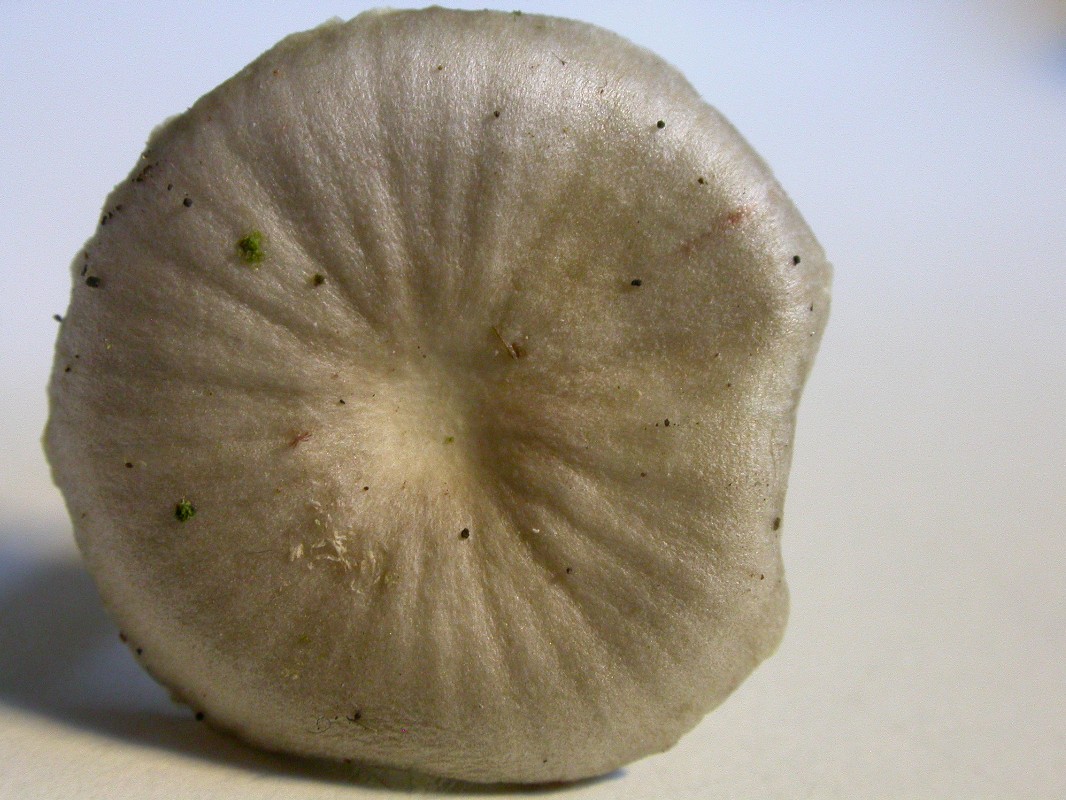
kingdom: Fungi
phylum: Basidiomycota
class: Agaricomycetes
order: Agaricales
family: Mycenaceae
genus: Mycena
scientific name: Mycena epipterygia
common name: gulstokket huesvamp
